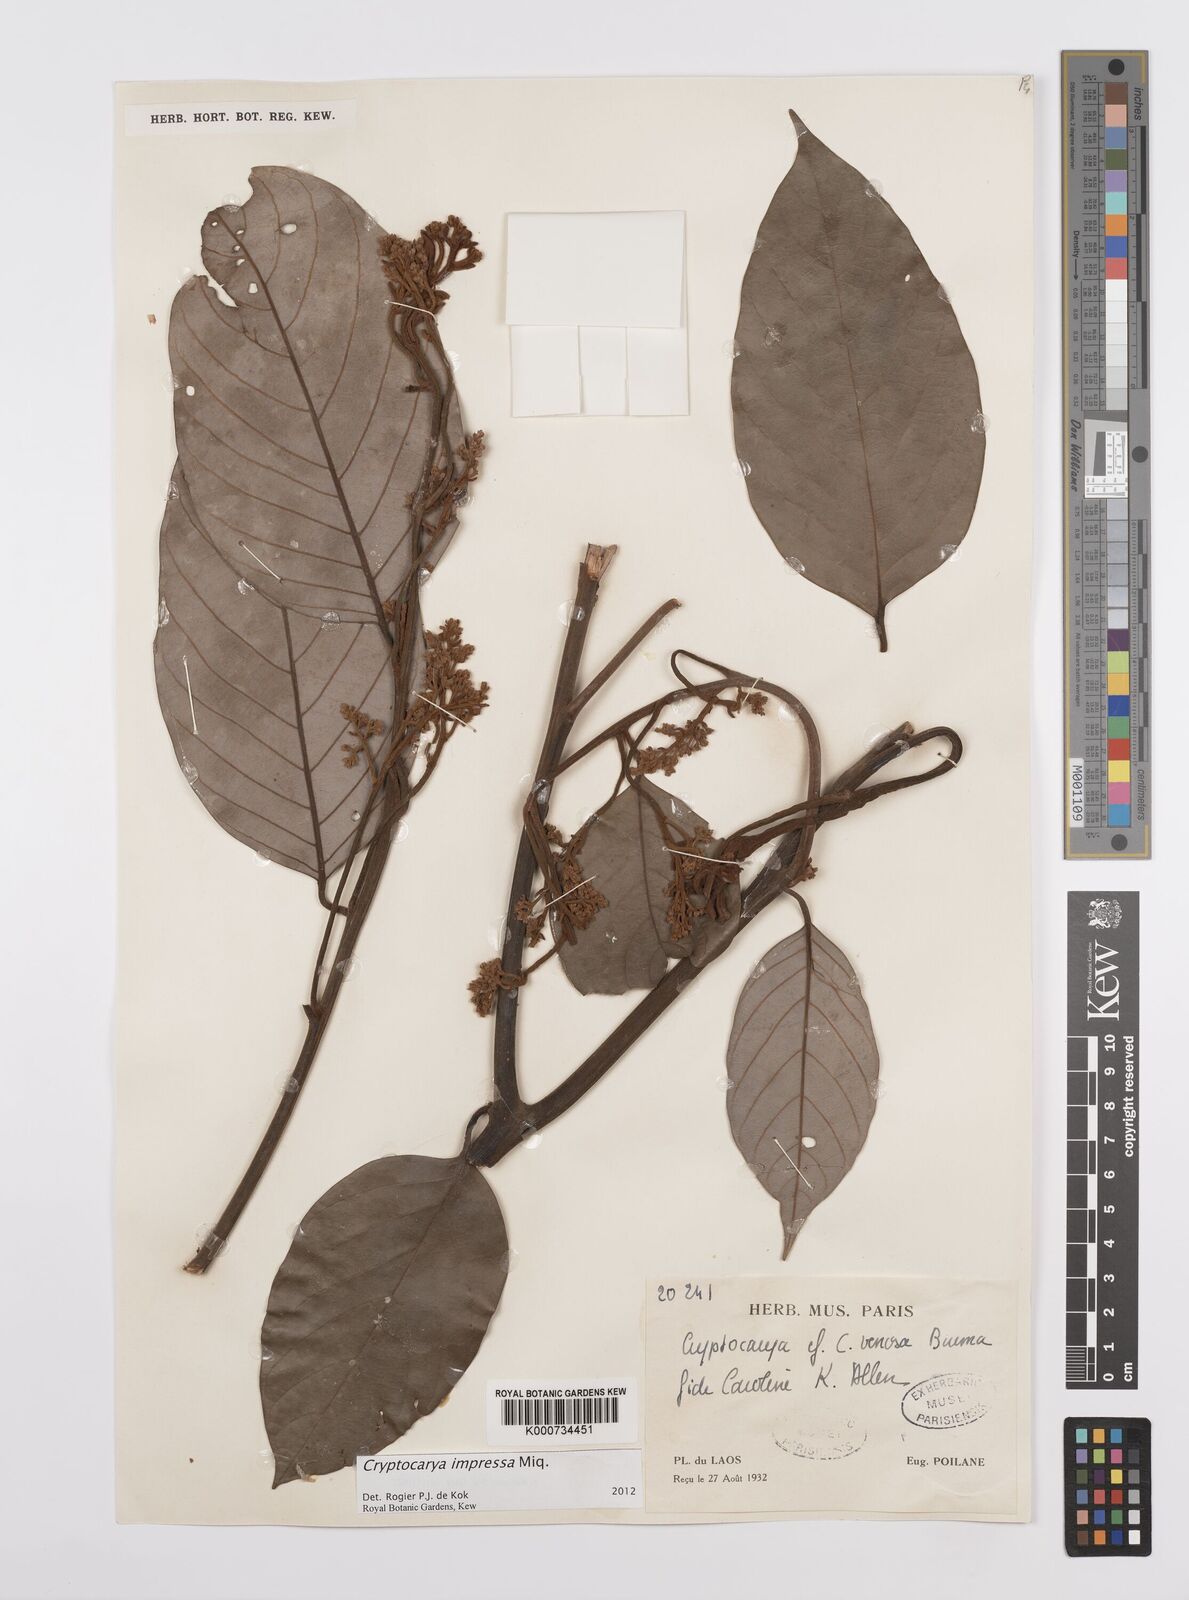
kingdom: Plantae
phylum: Tracheophyta
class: Magnoliopsida
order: Laurales
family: Lauraceae
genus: Cryptocarya
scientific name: Cryptocarya impressa
